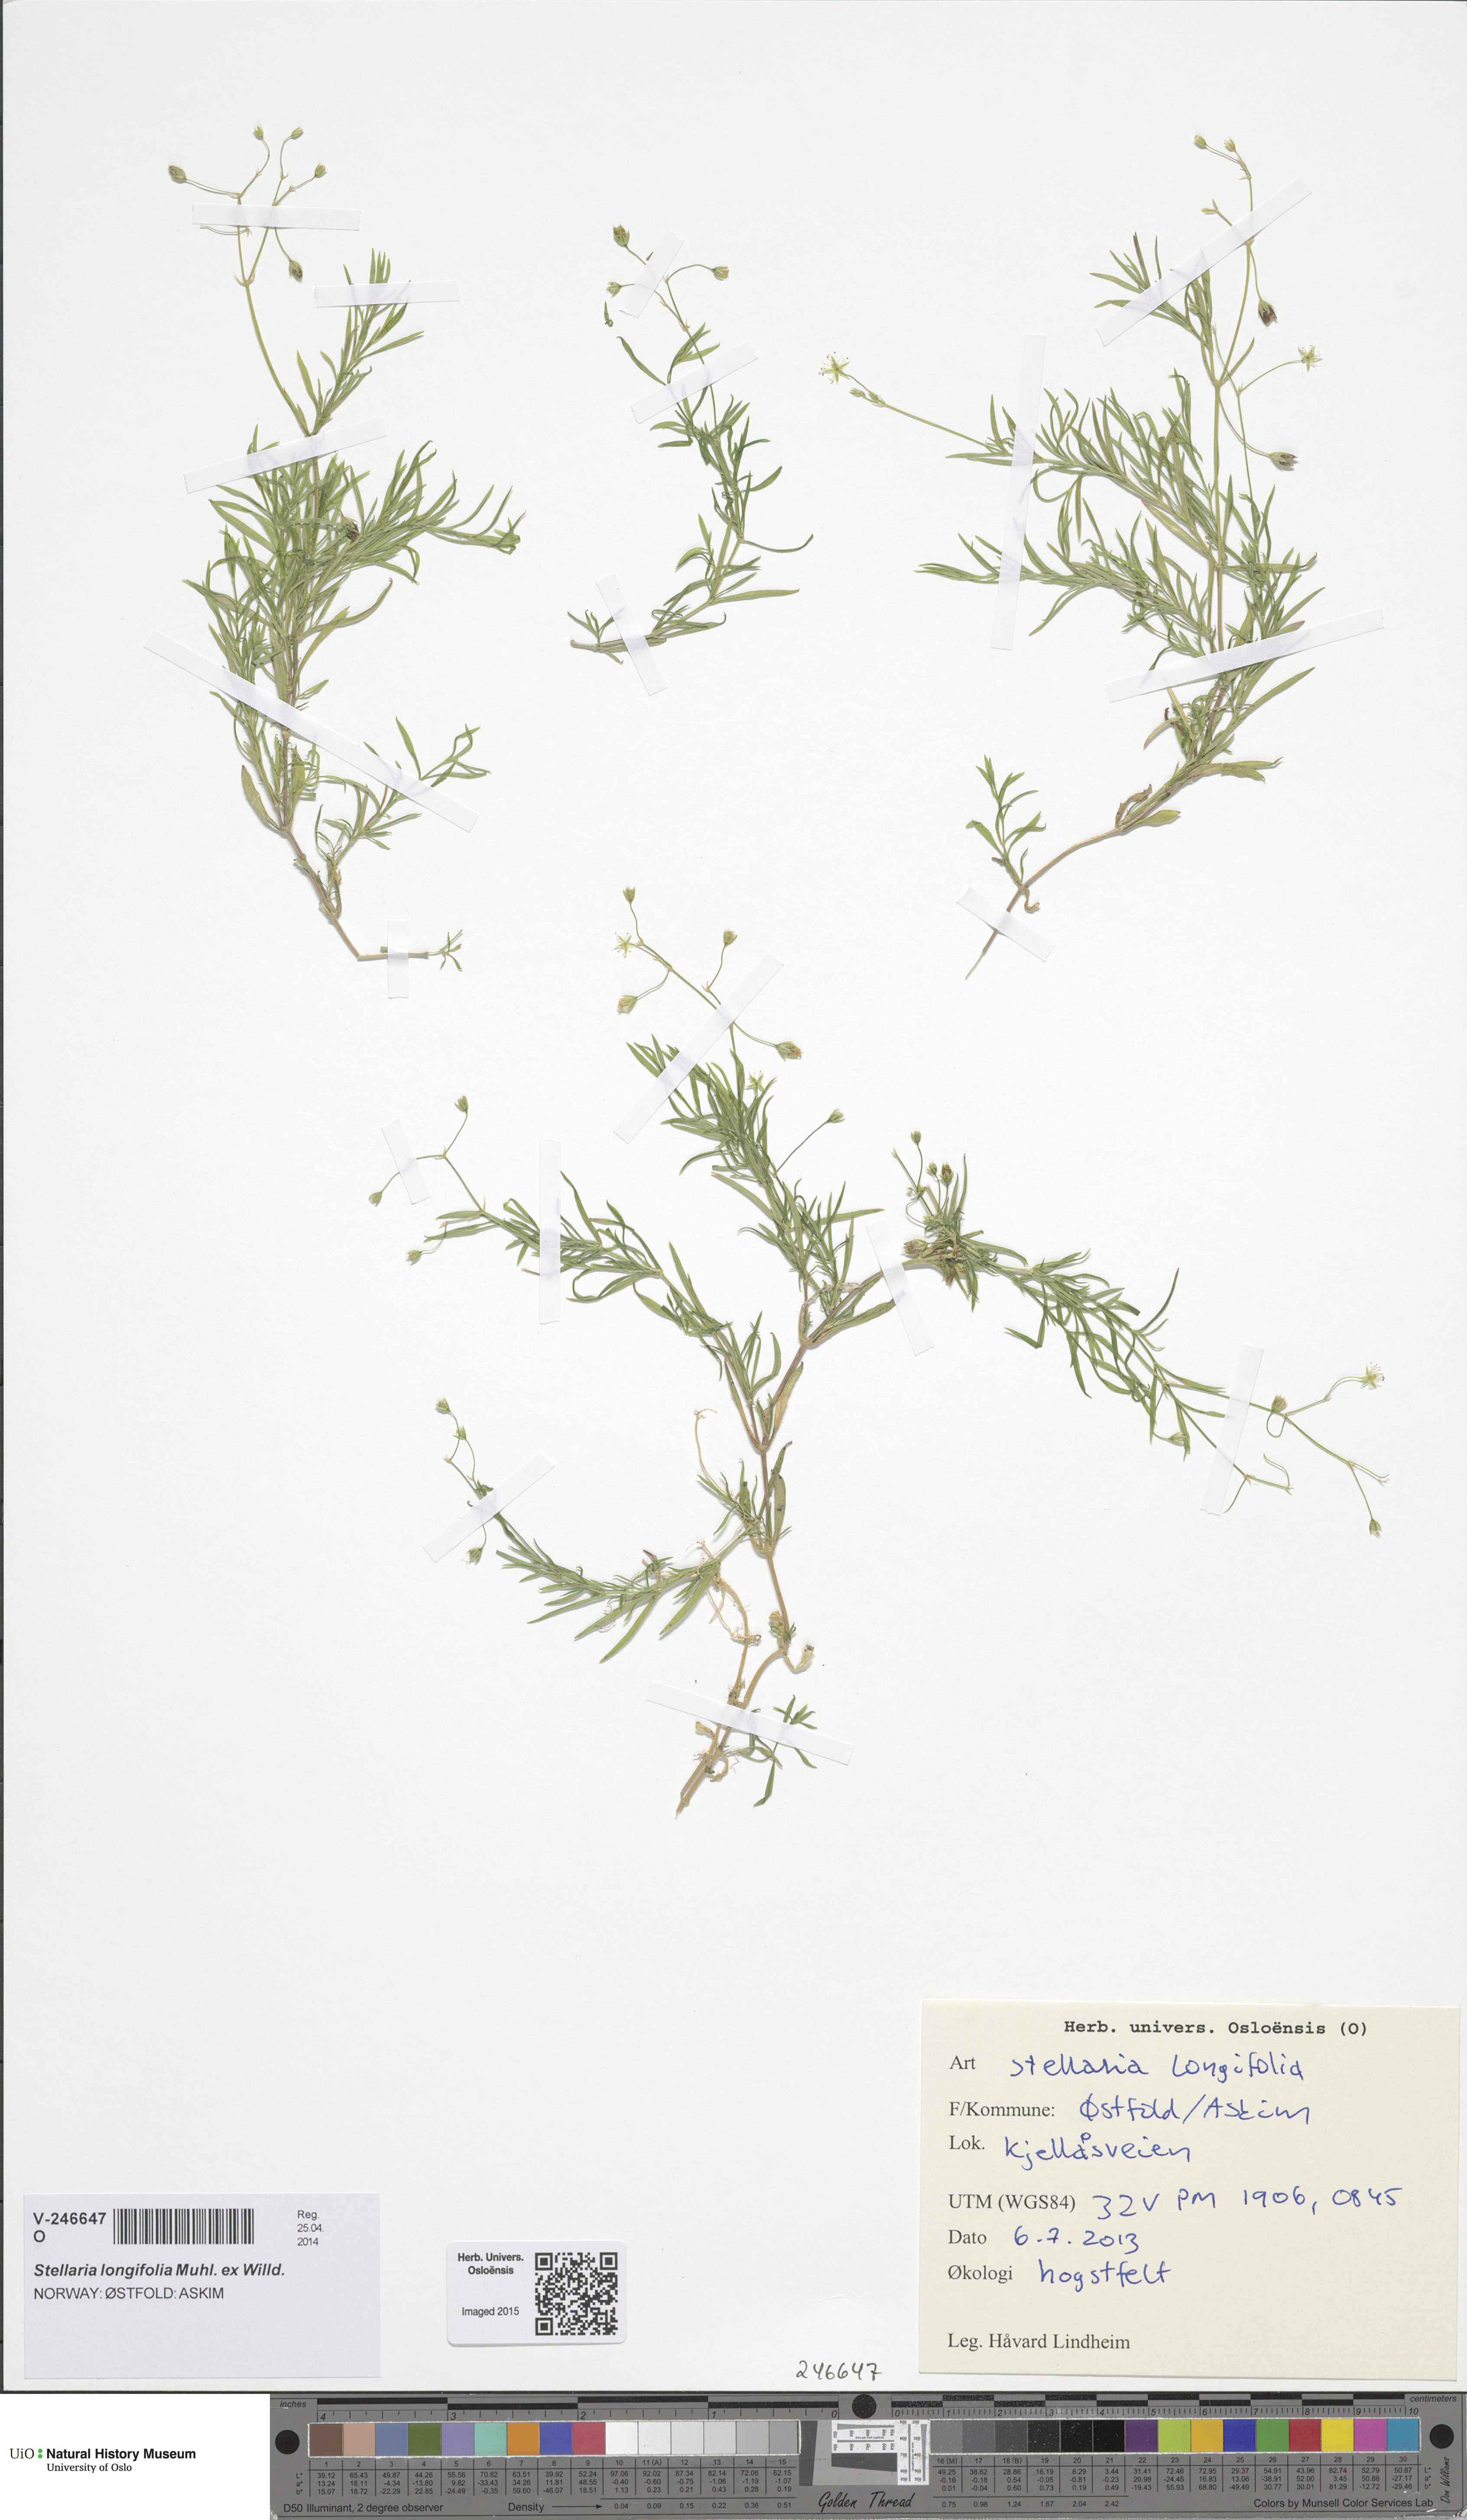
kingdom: Plantae
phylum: Tracheophyta
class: Magnoliopsida
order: Caryophyllales
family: Caryophyllaceae
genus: Stellaria
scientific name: Stellaria longifolia
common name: Long-leaved chickweed
